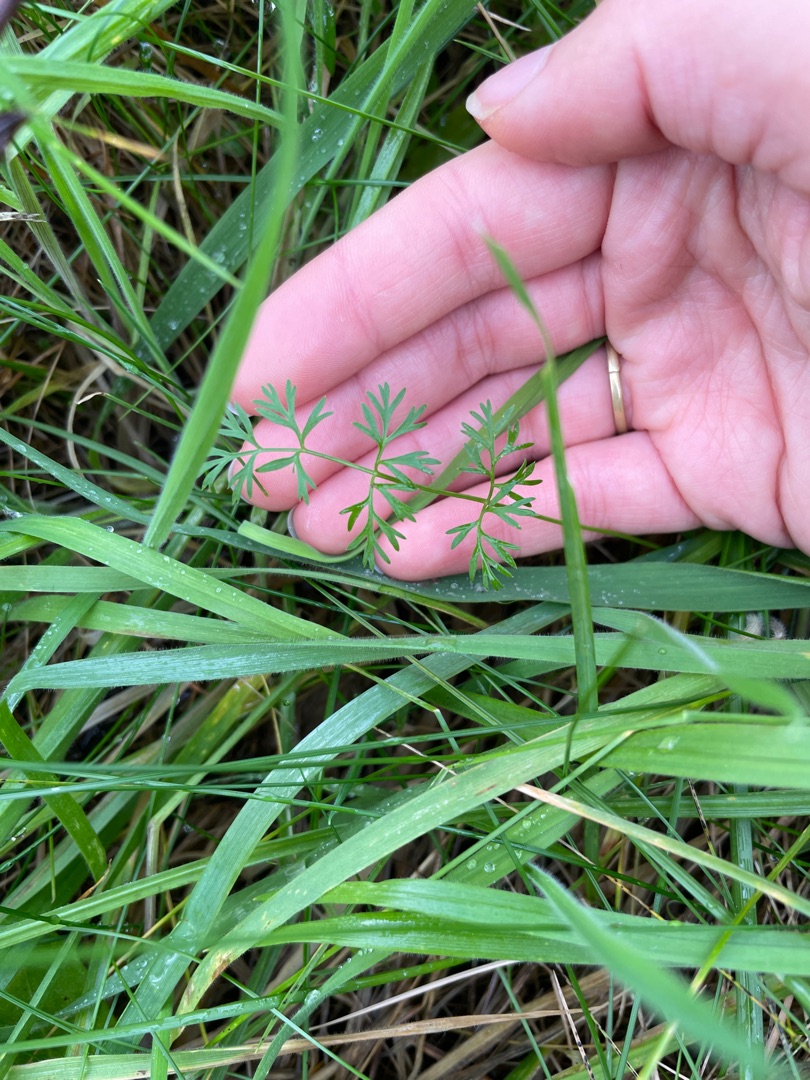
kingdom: Plantae
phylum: Tracheophyta
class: Magnoliopsida
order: Apiales
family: Apiaceae
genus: Daucus
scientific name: Daucus carota
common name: Gulerod
